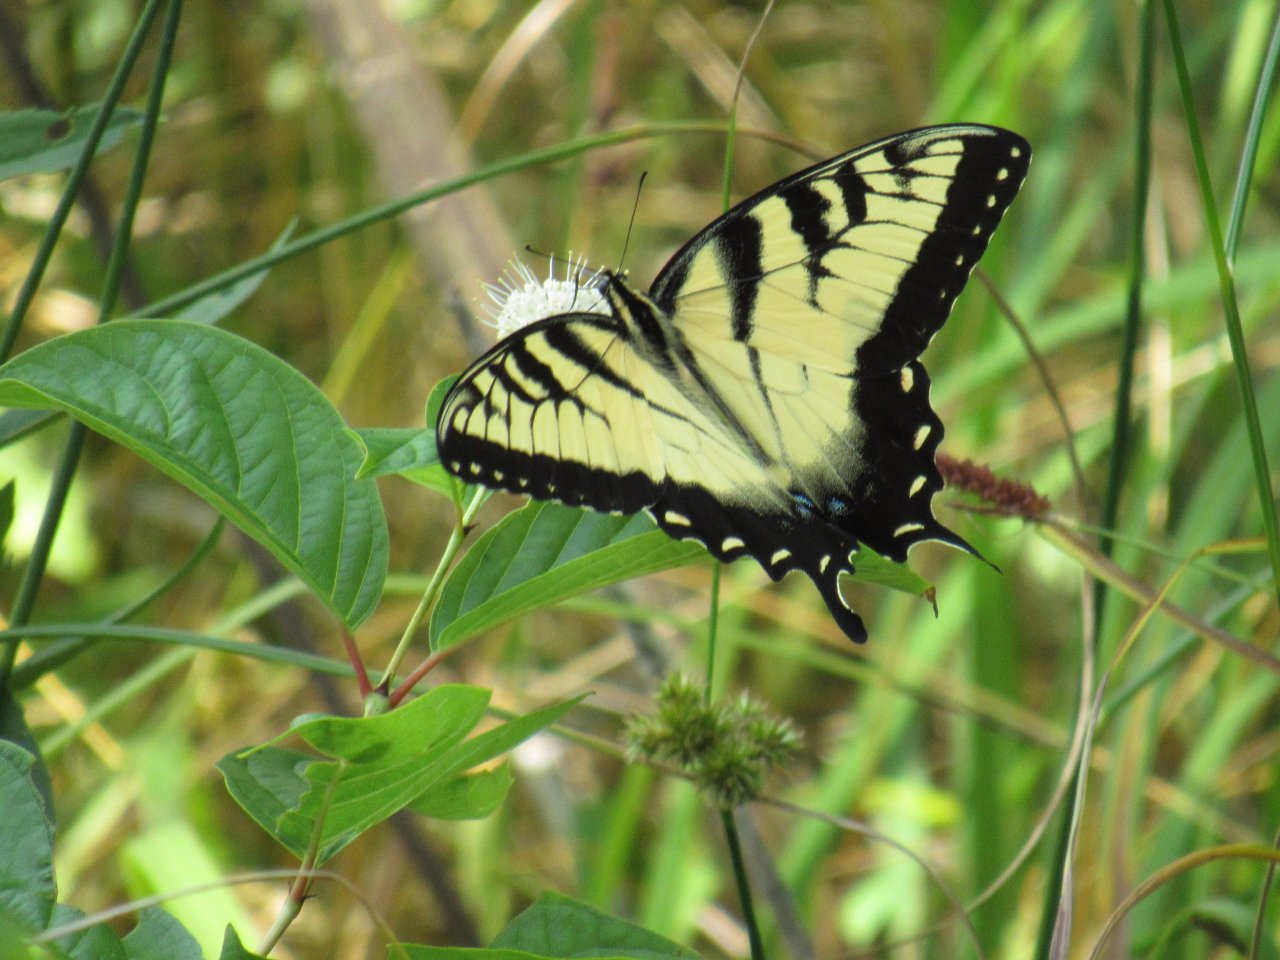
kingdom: Animalia
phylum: Arthropoda
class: Insecta
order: Lepidoptera
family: Papilionidae
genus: Pterourus
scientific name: Pterourus glaucus
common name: Eastern Tiger Swallowtail
